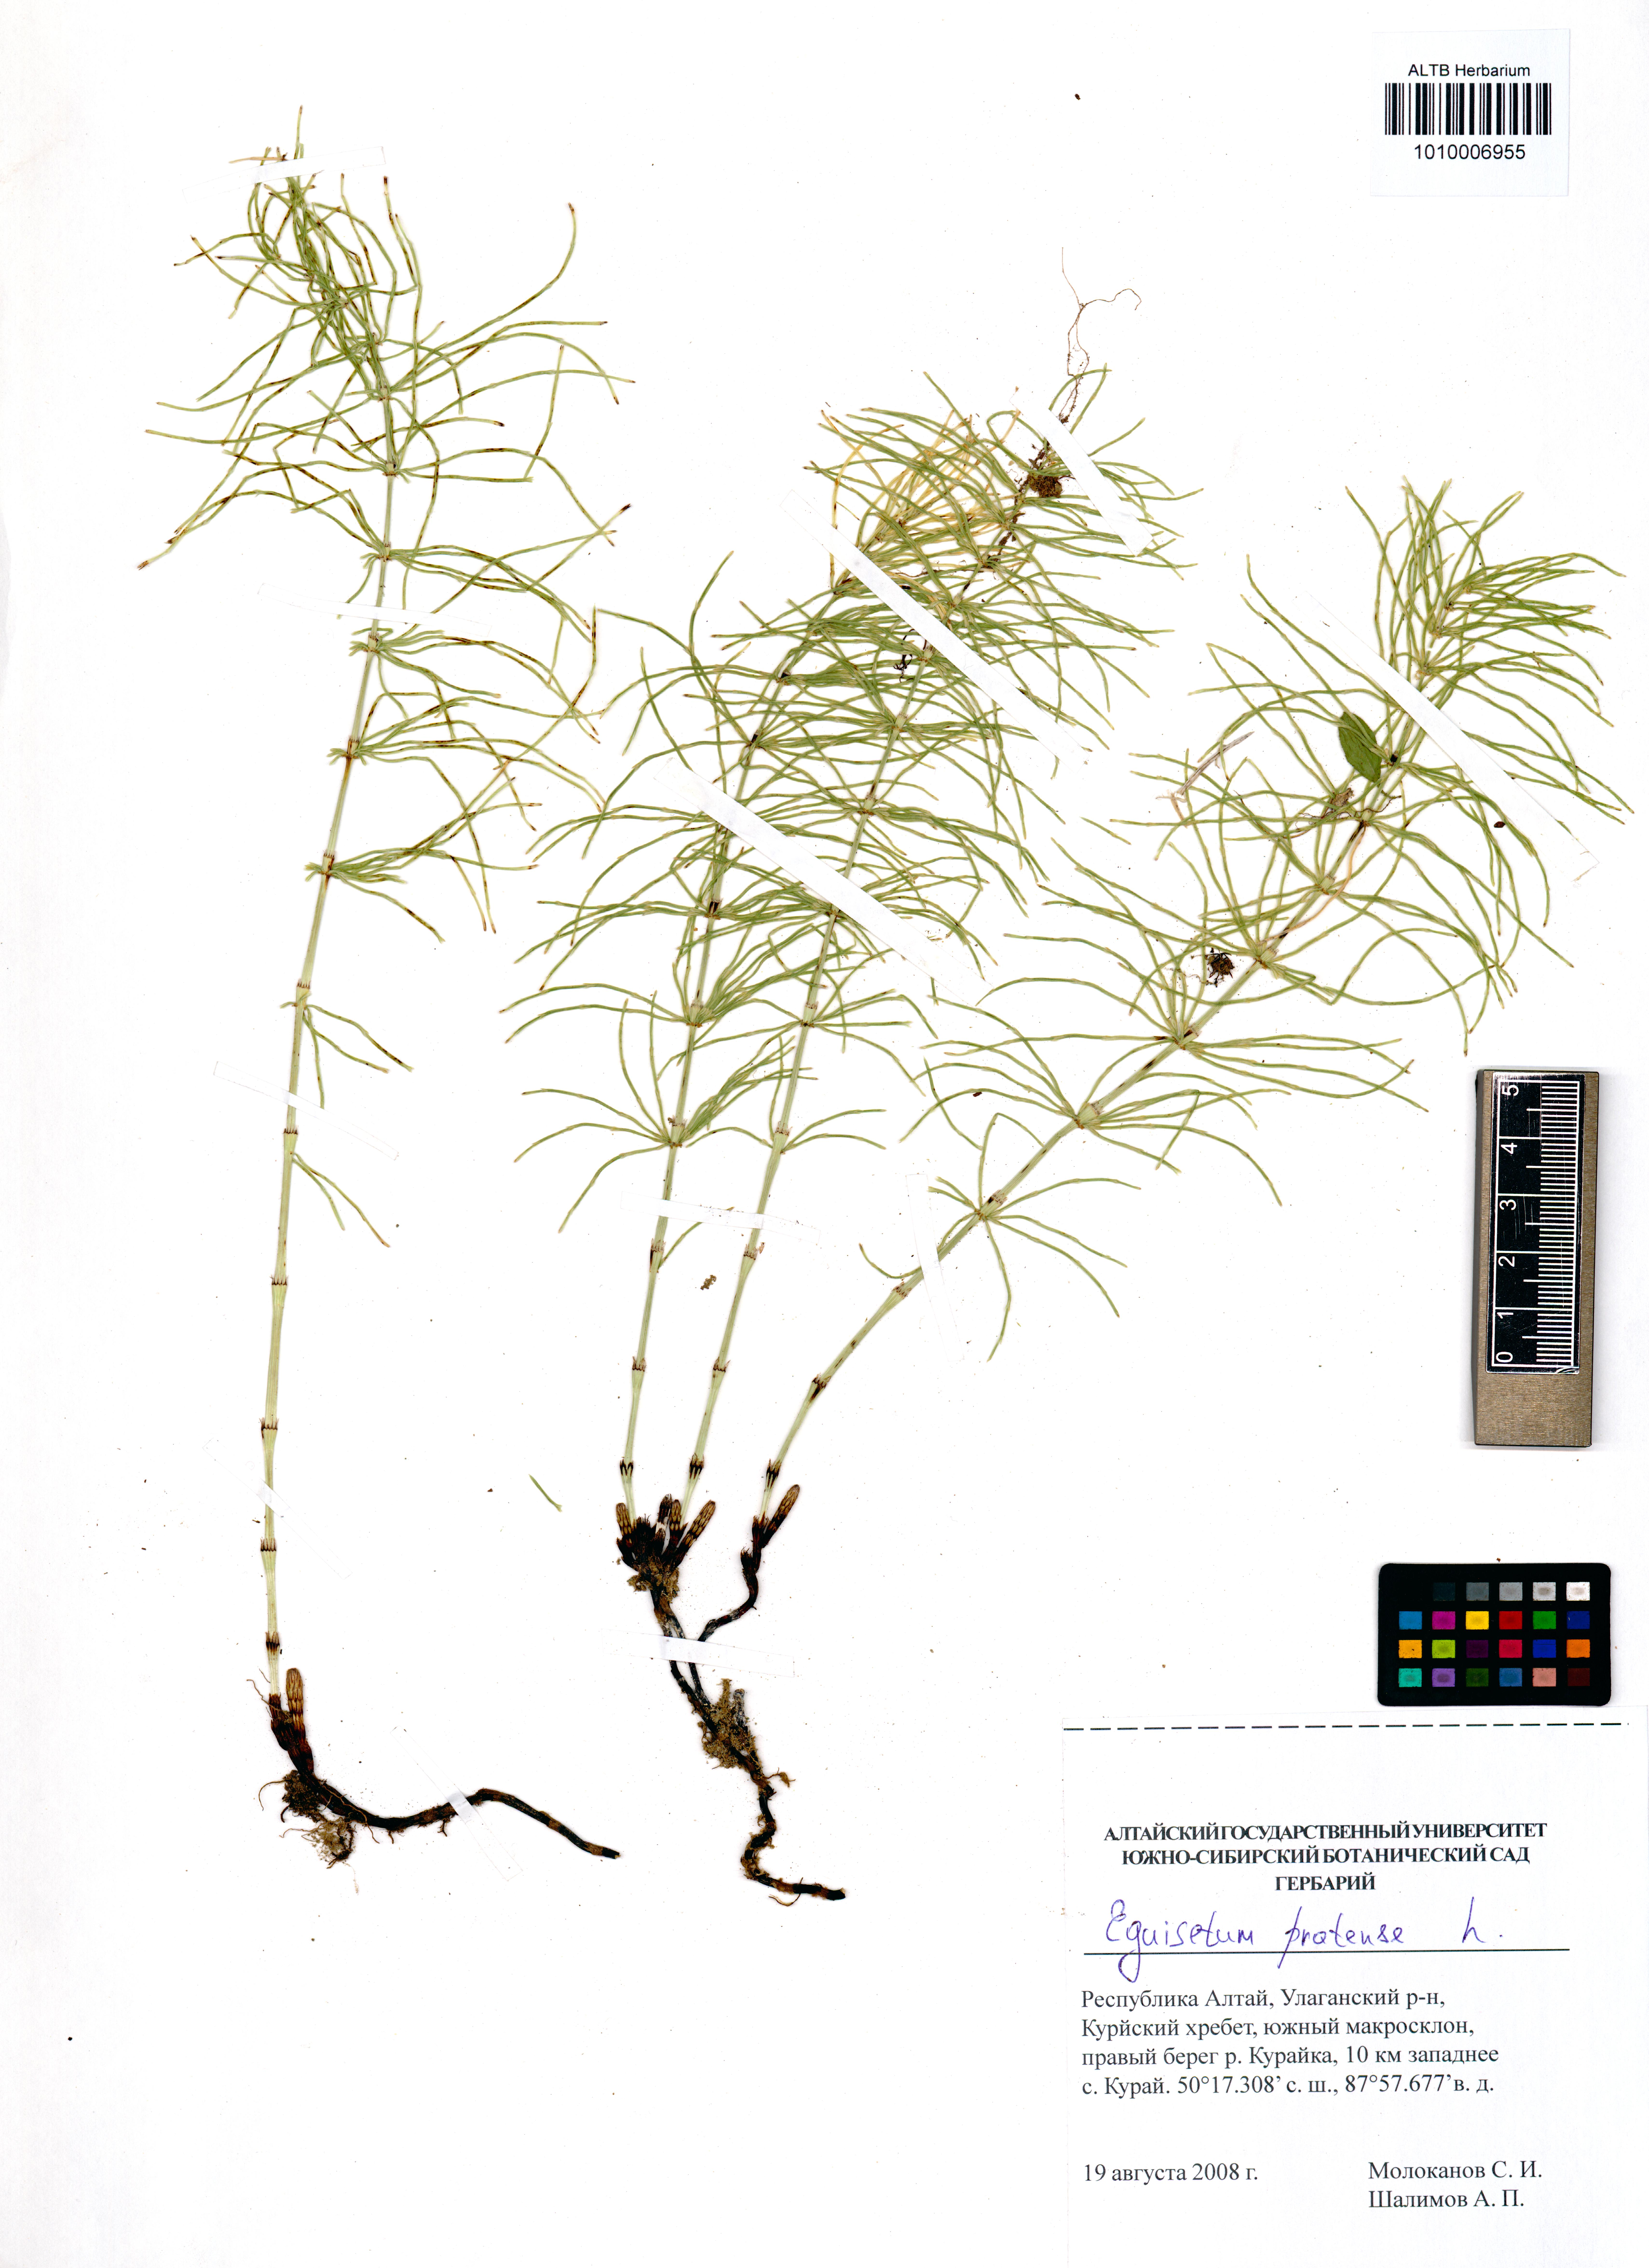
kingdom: Plantae
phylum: Tracheophyta
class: Polypodiopsida
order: Equisetales
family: Equisetaceae
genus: Equisetum
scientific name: Equisetum pratense
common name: Meadow horsetail
